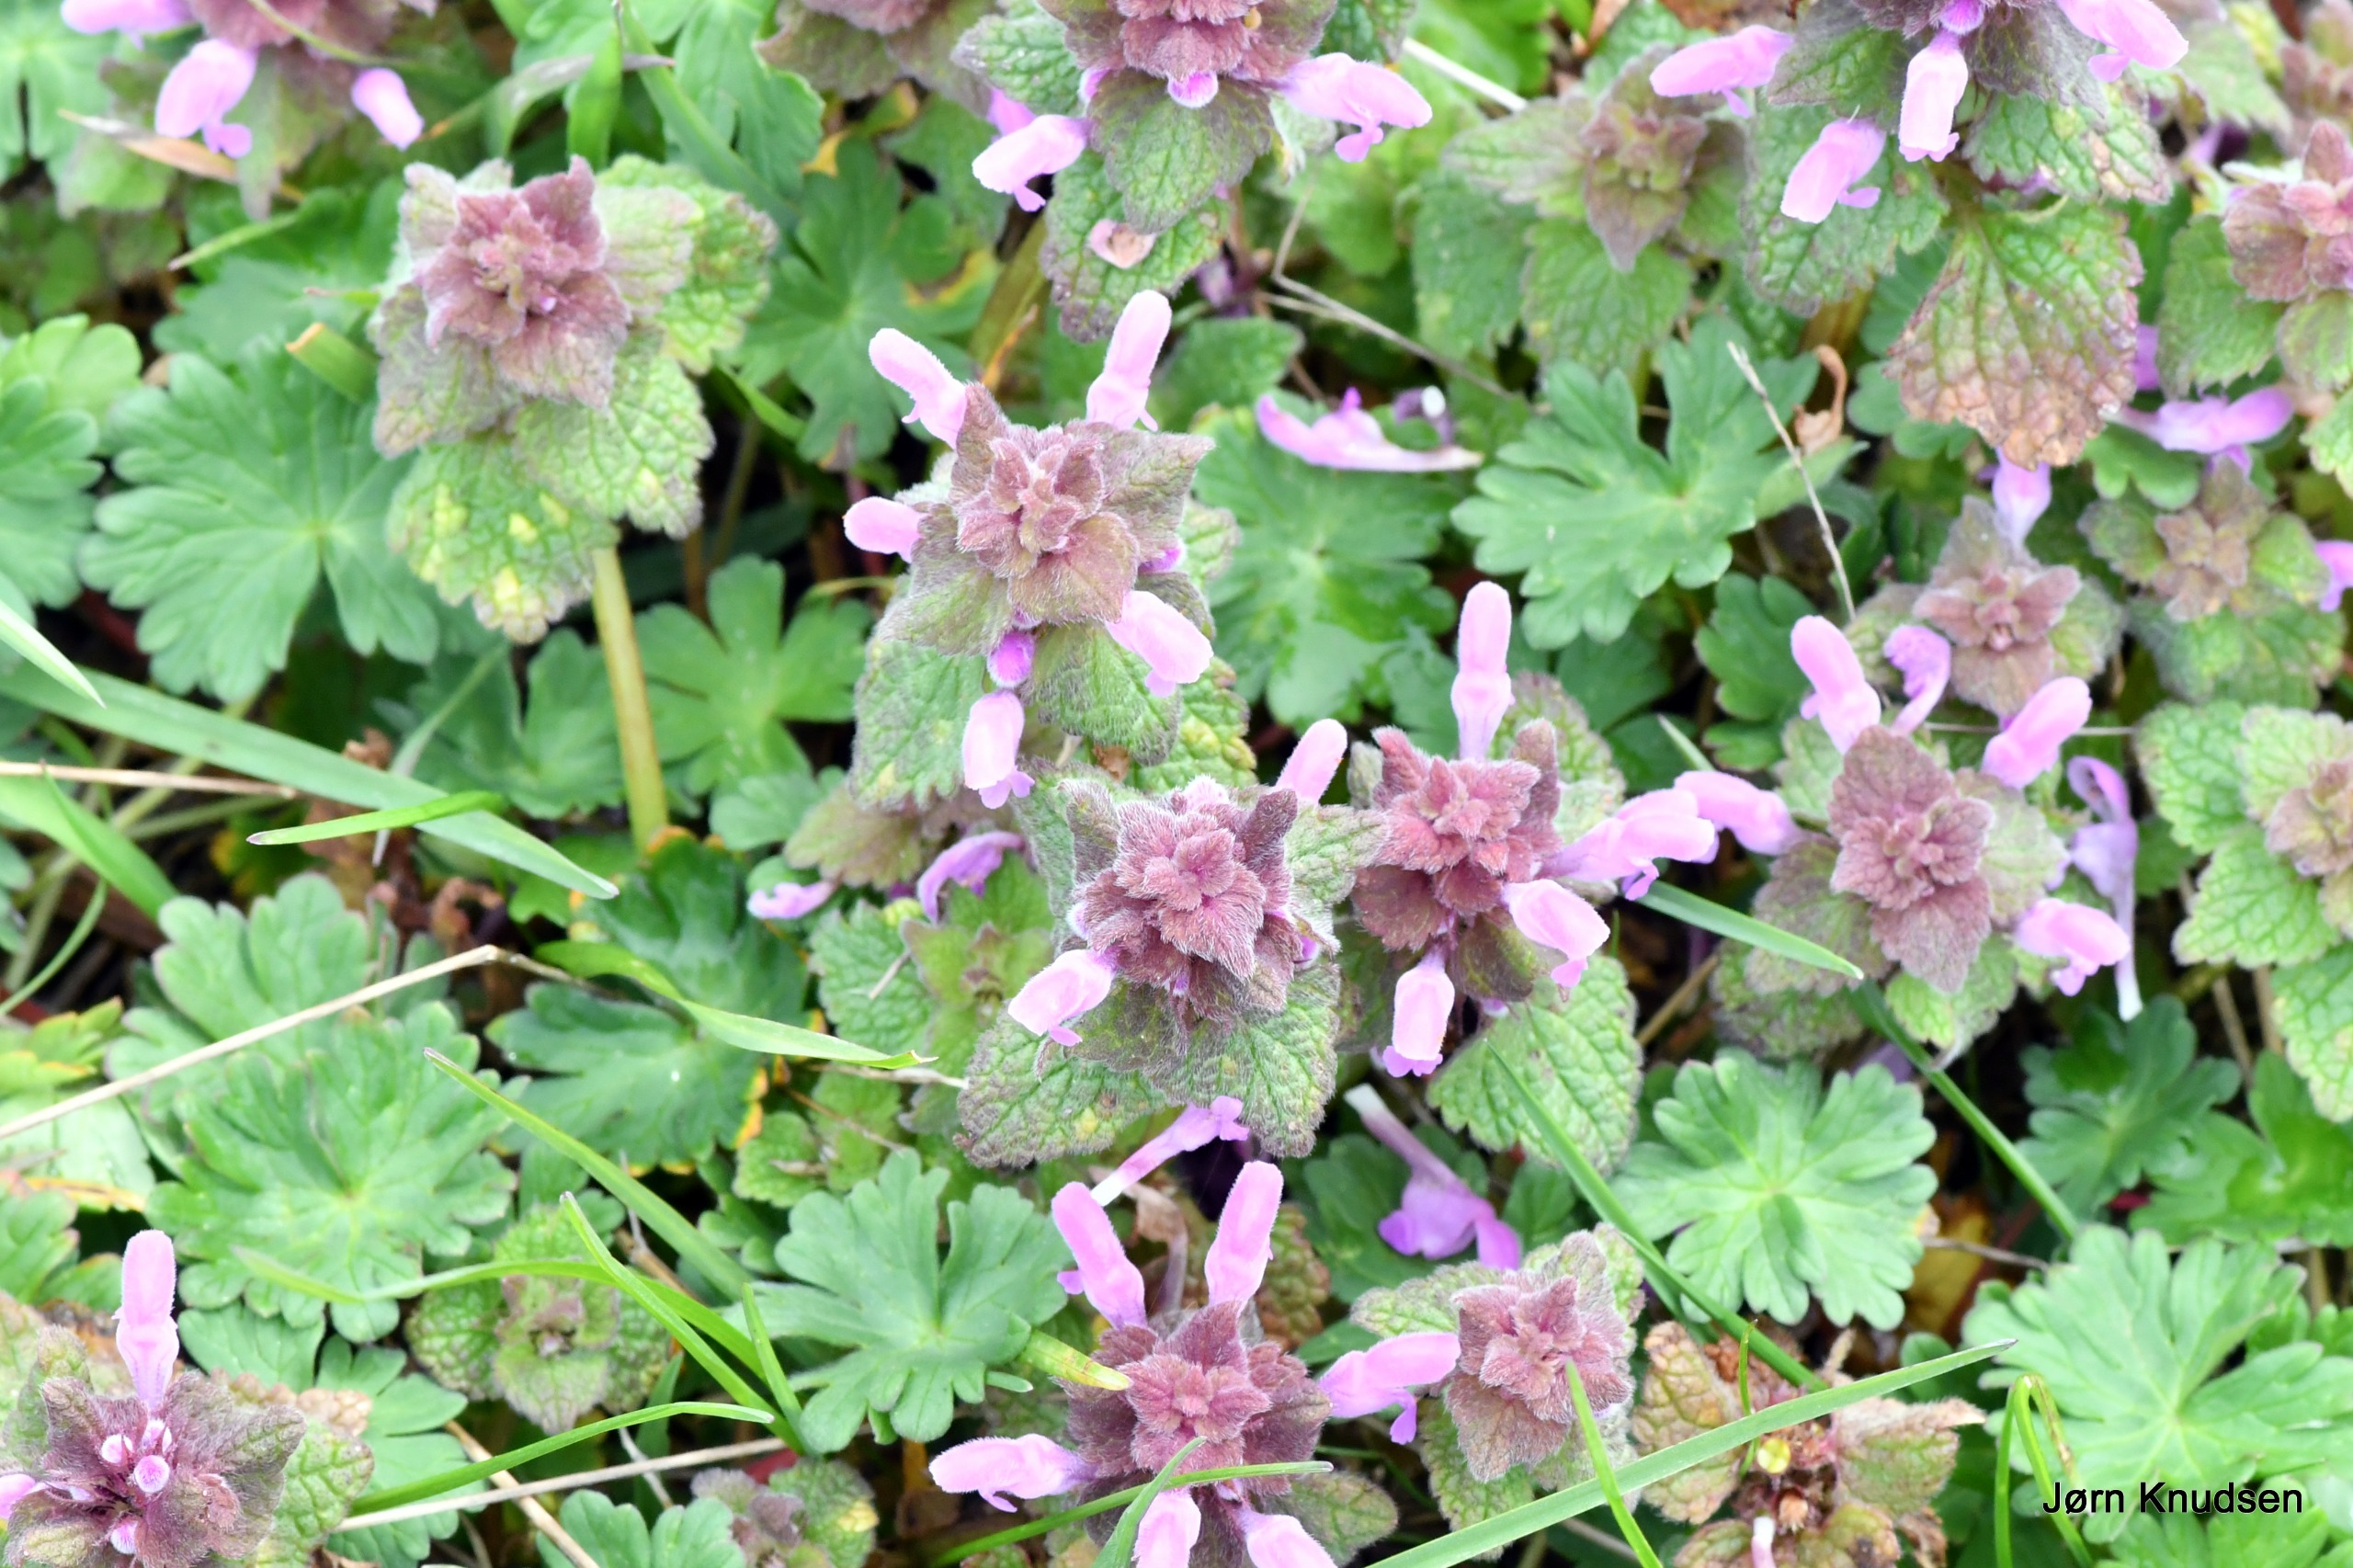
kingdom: Plantae
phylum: Tracheophyta
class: Magnoliopsida
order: Lamiales
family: Lamiaceae
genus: Lamium
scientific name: Lamium purpureum
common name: Rød tvetand
